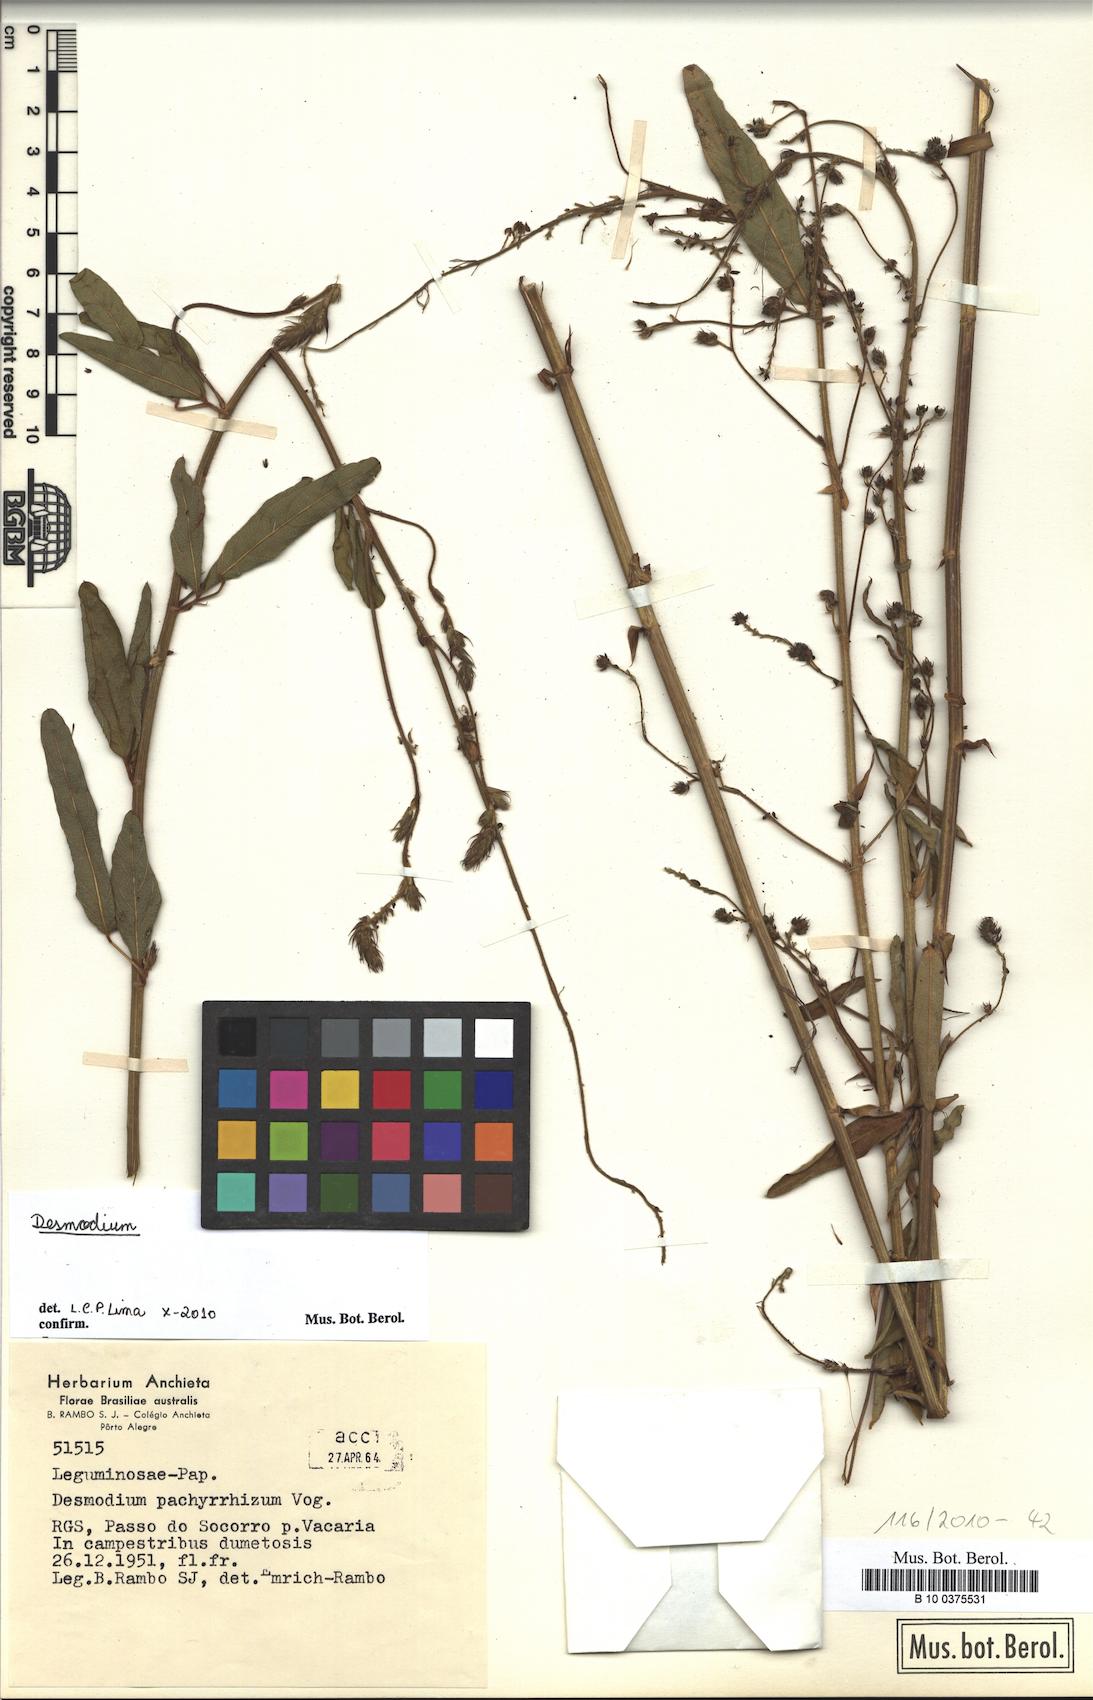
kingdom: Plantae
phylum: Tracheophyta
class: Magnoliopsida
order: Fabales
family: Fabaceae
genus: Desmodium
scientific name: Desmodium
